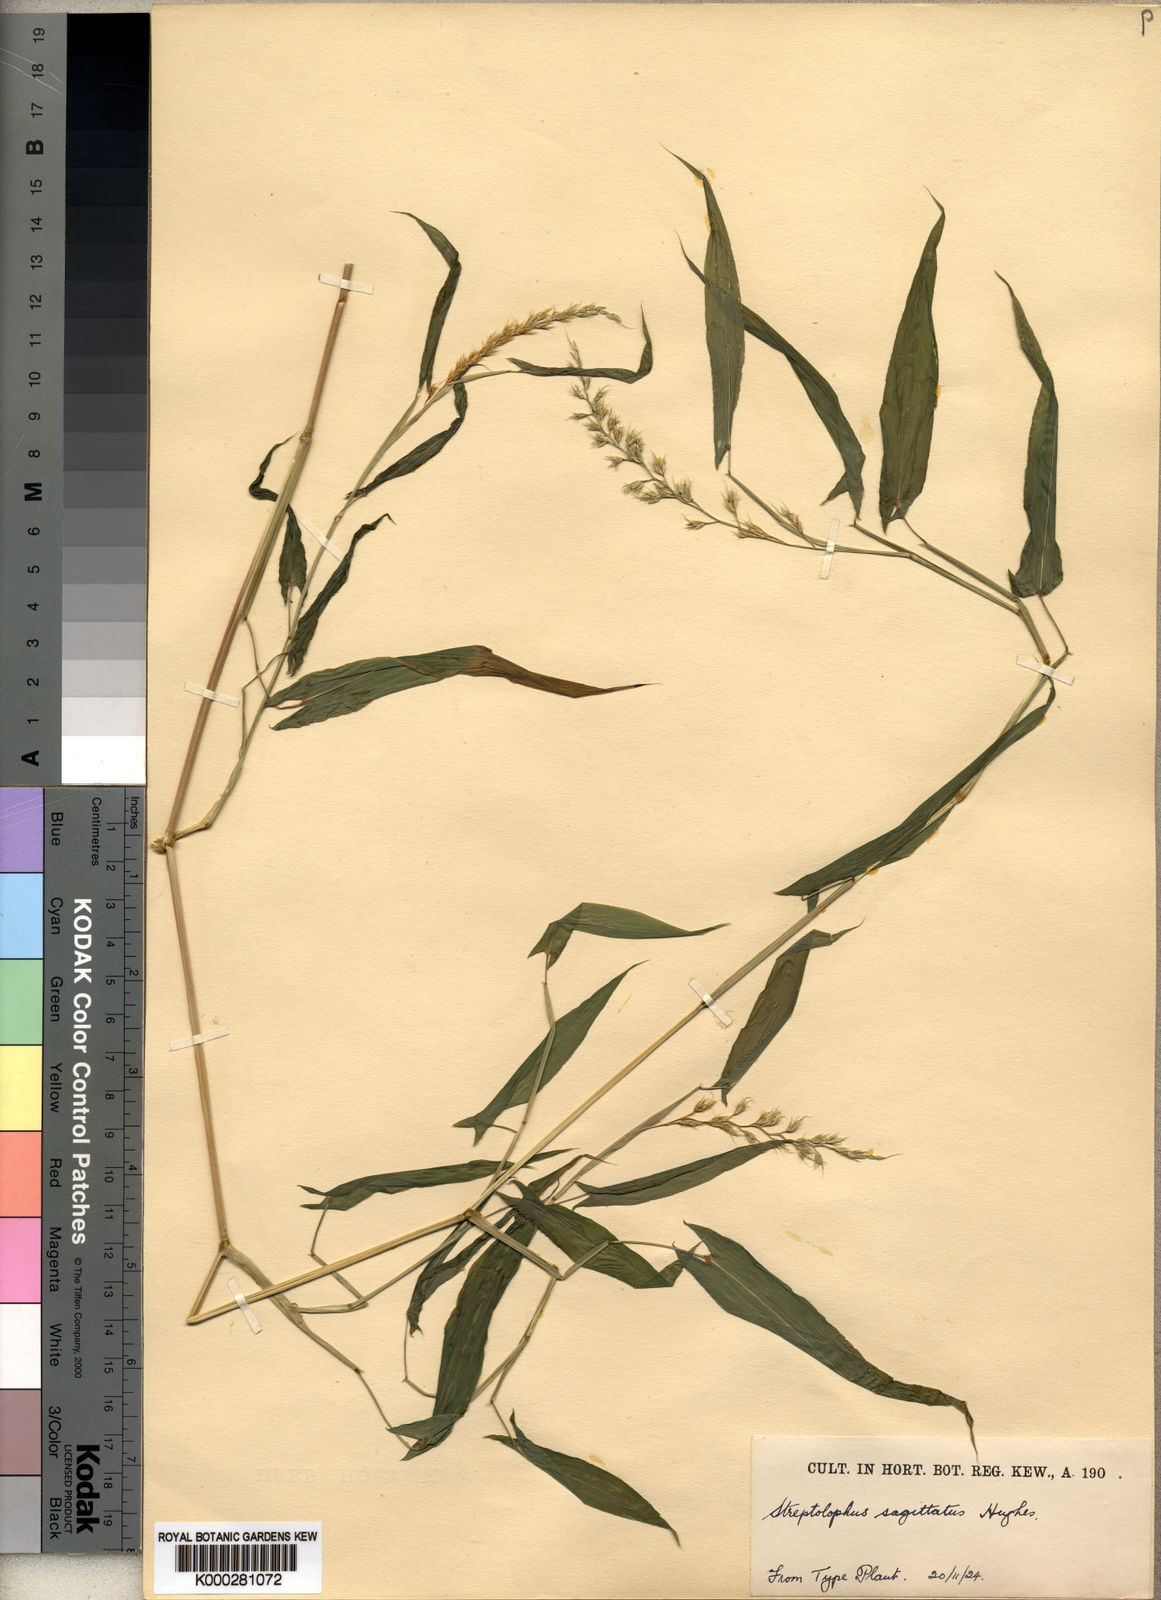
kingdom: Plantae
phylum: Tracheophyta
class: Liliopsida
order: Poales
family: Poaceae
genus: Streptolophus
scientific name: Streptolophus sagittifolius
